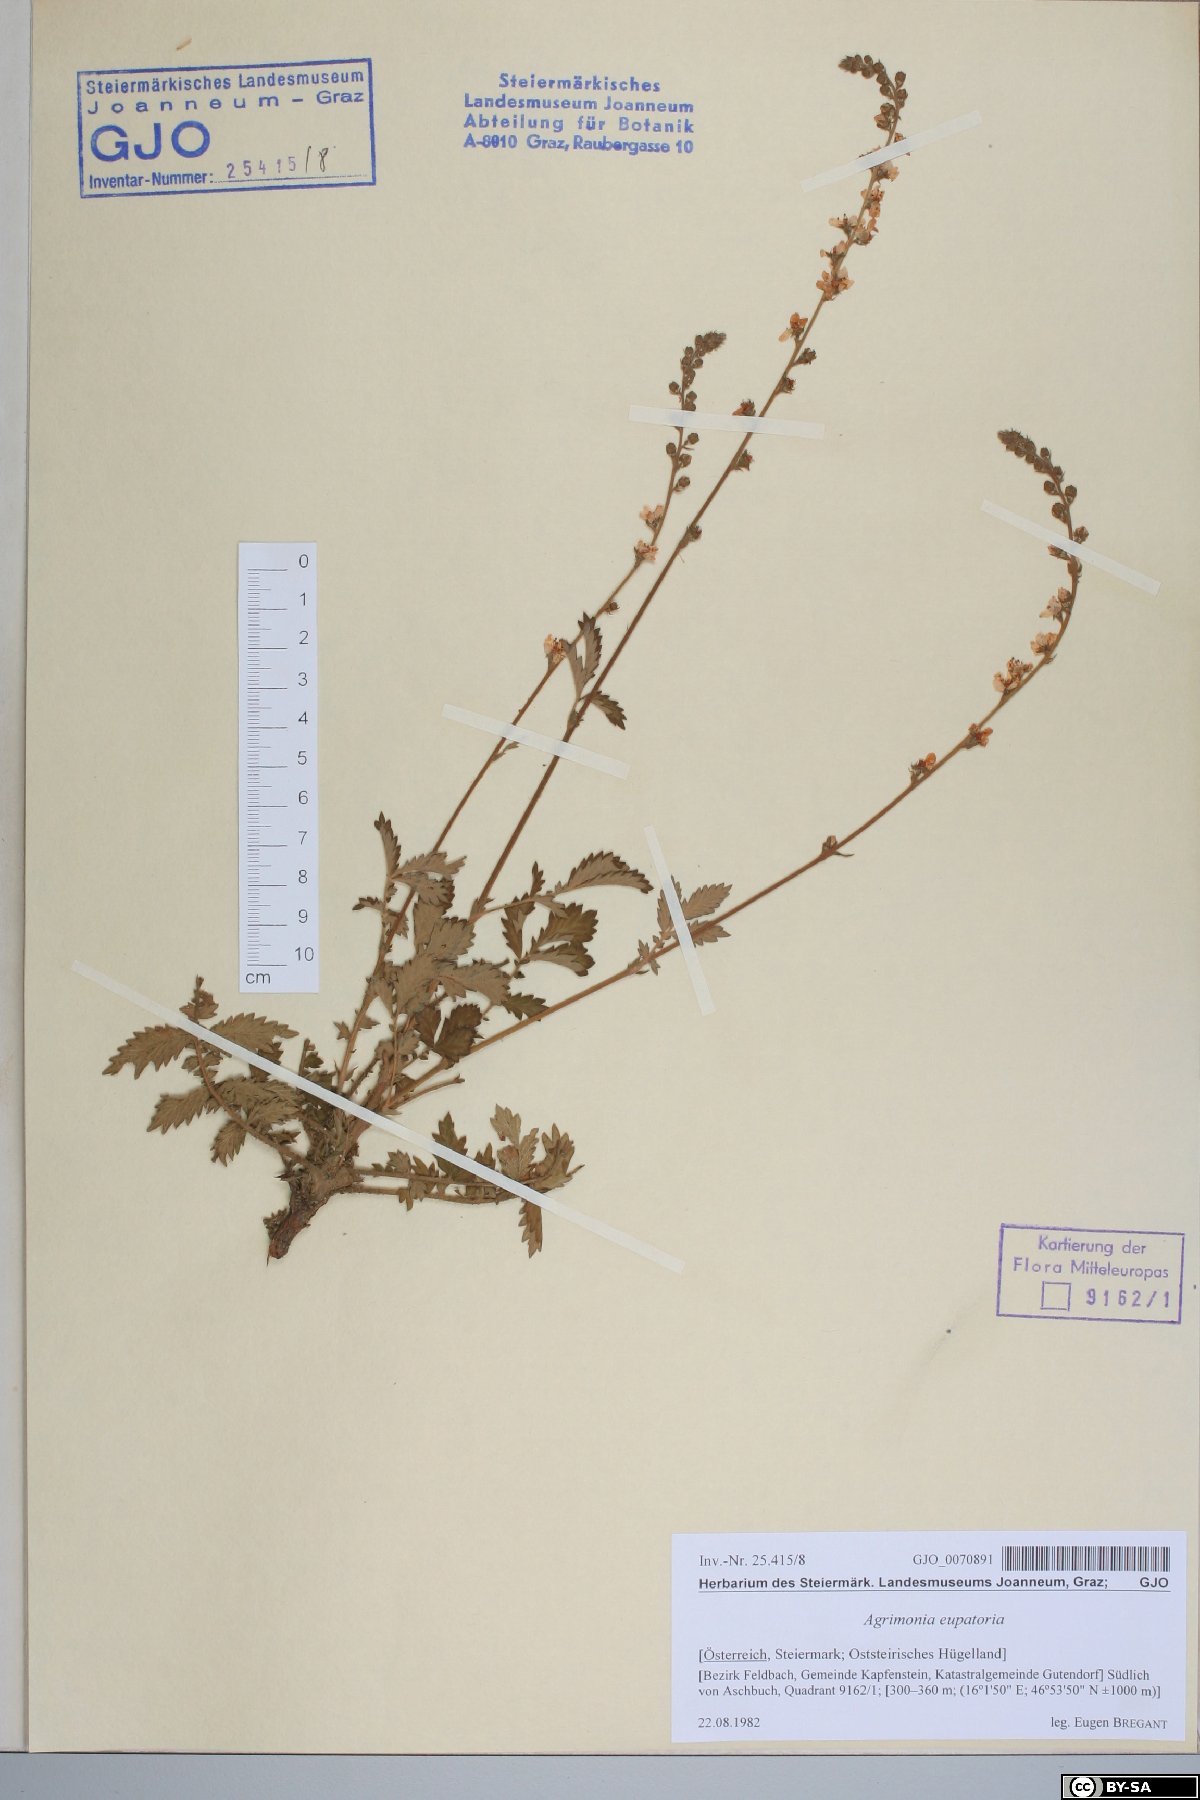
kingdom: Plantae
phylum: Tracheophyta
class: Magnoliopsida
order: Rosales
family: Rosaceae
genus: Agrimonia
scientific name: Agrimonia eupatoria
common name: Agrimony
